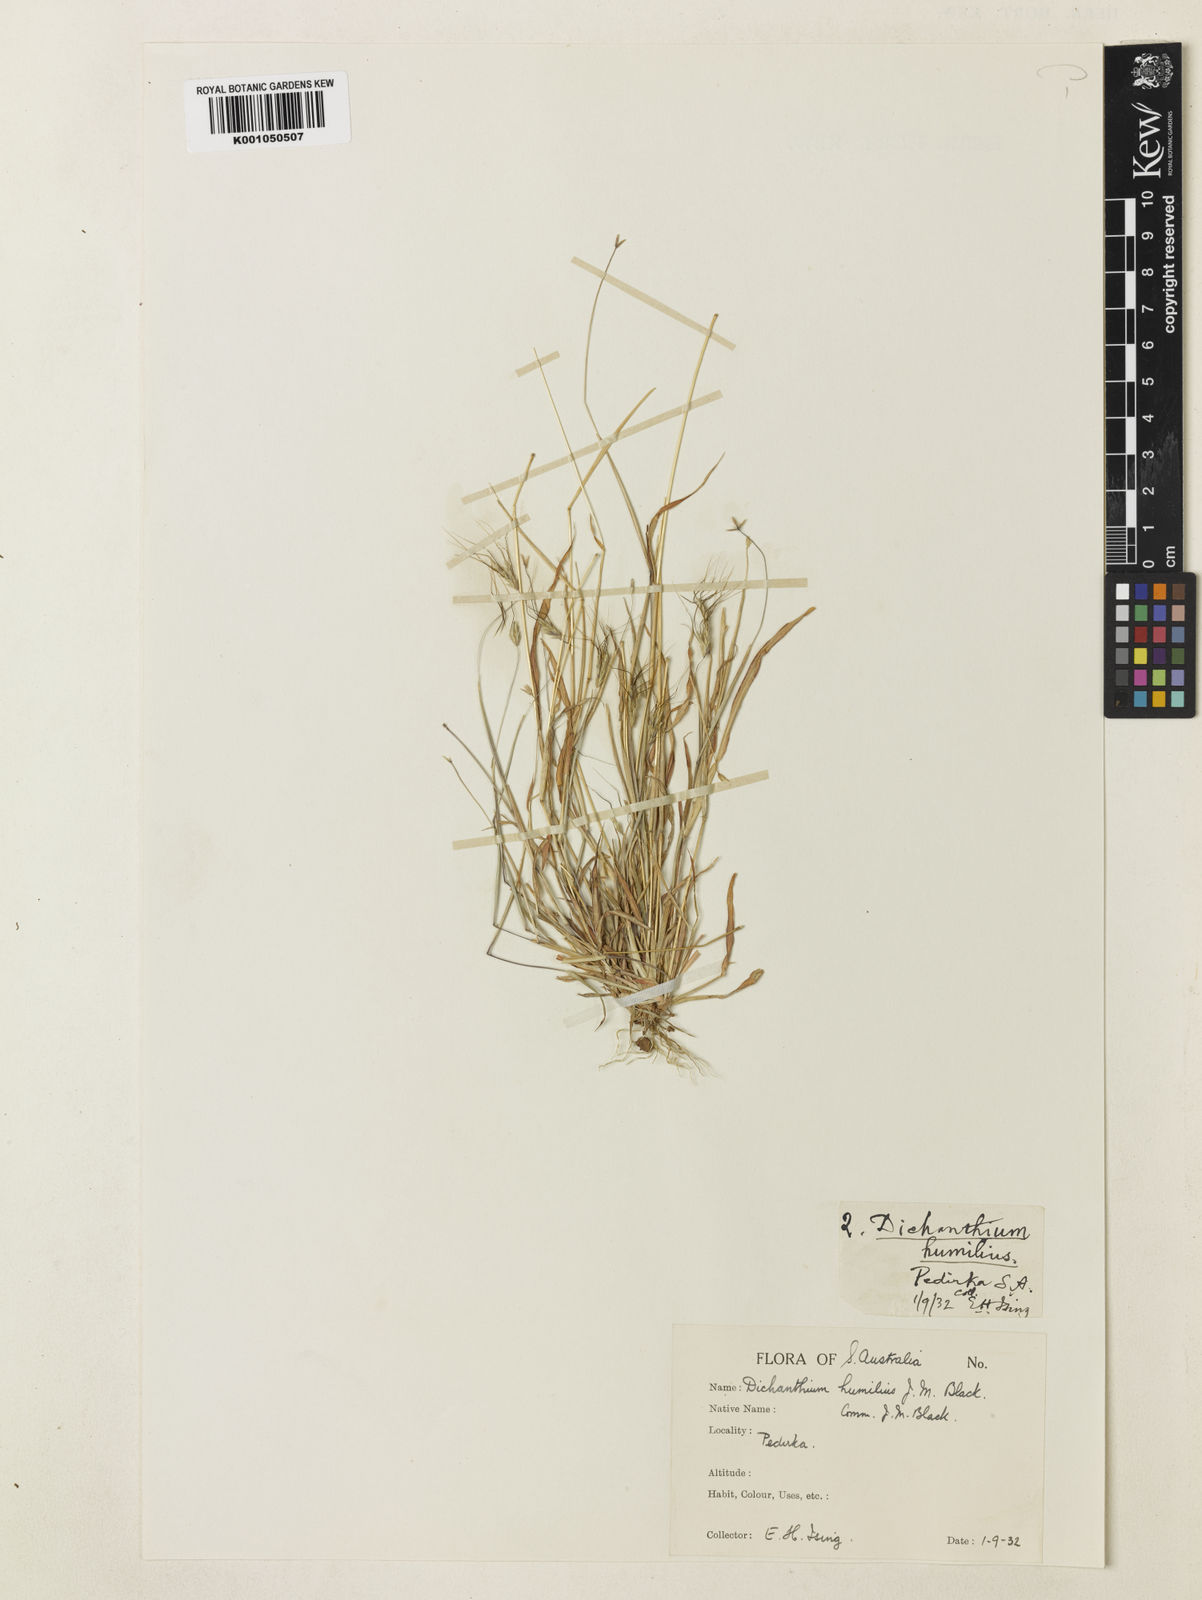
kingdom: Plantae
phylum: Tracheophyta
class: Liliopsida
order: Poales
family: Poaceae
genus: Dichanthium
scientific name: Dichanthium sericeum
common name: Silky bluestem
